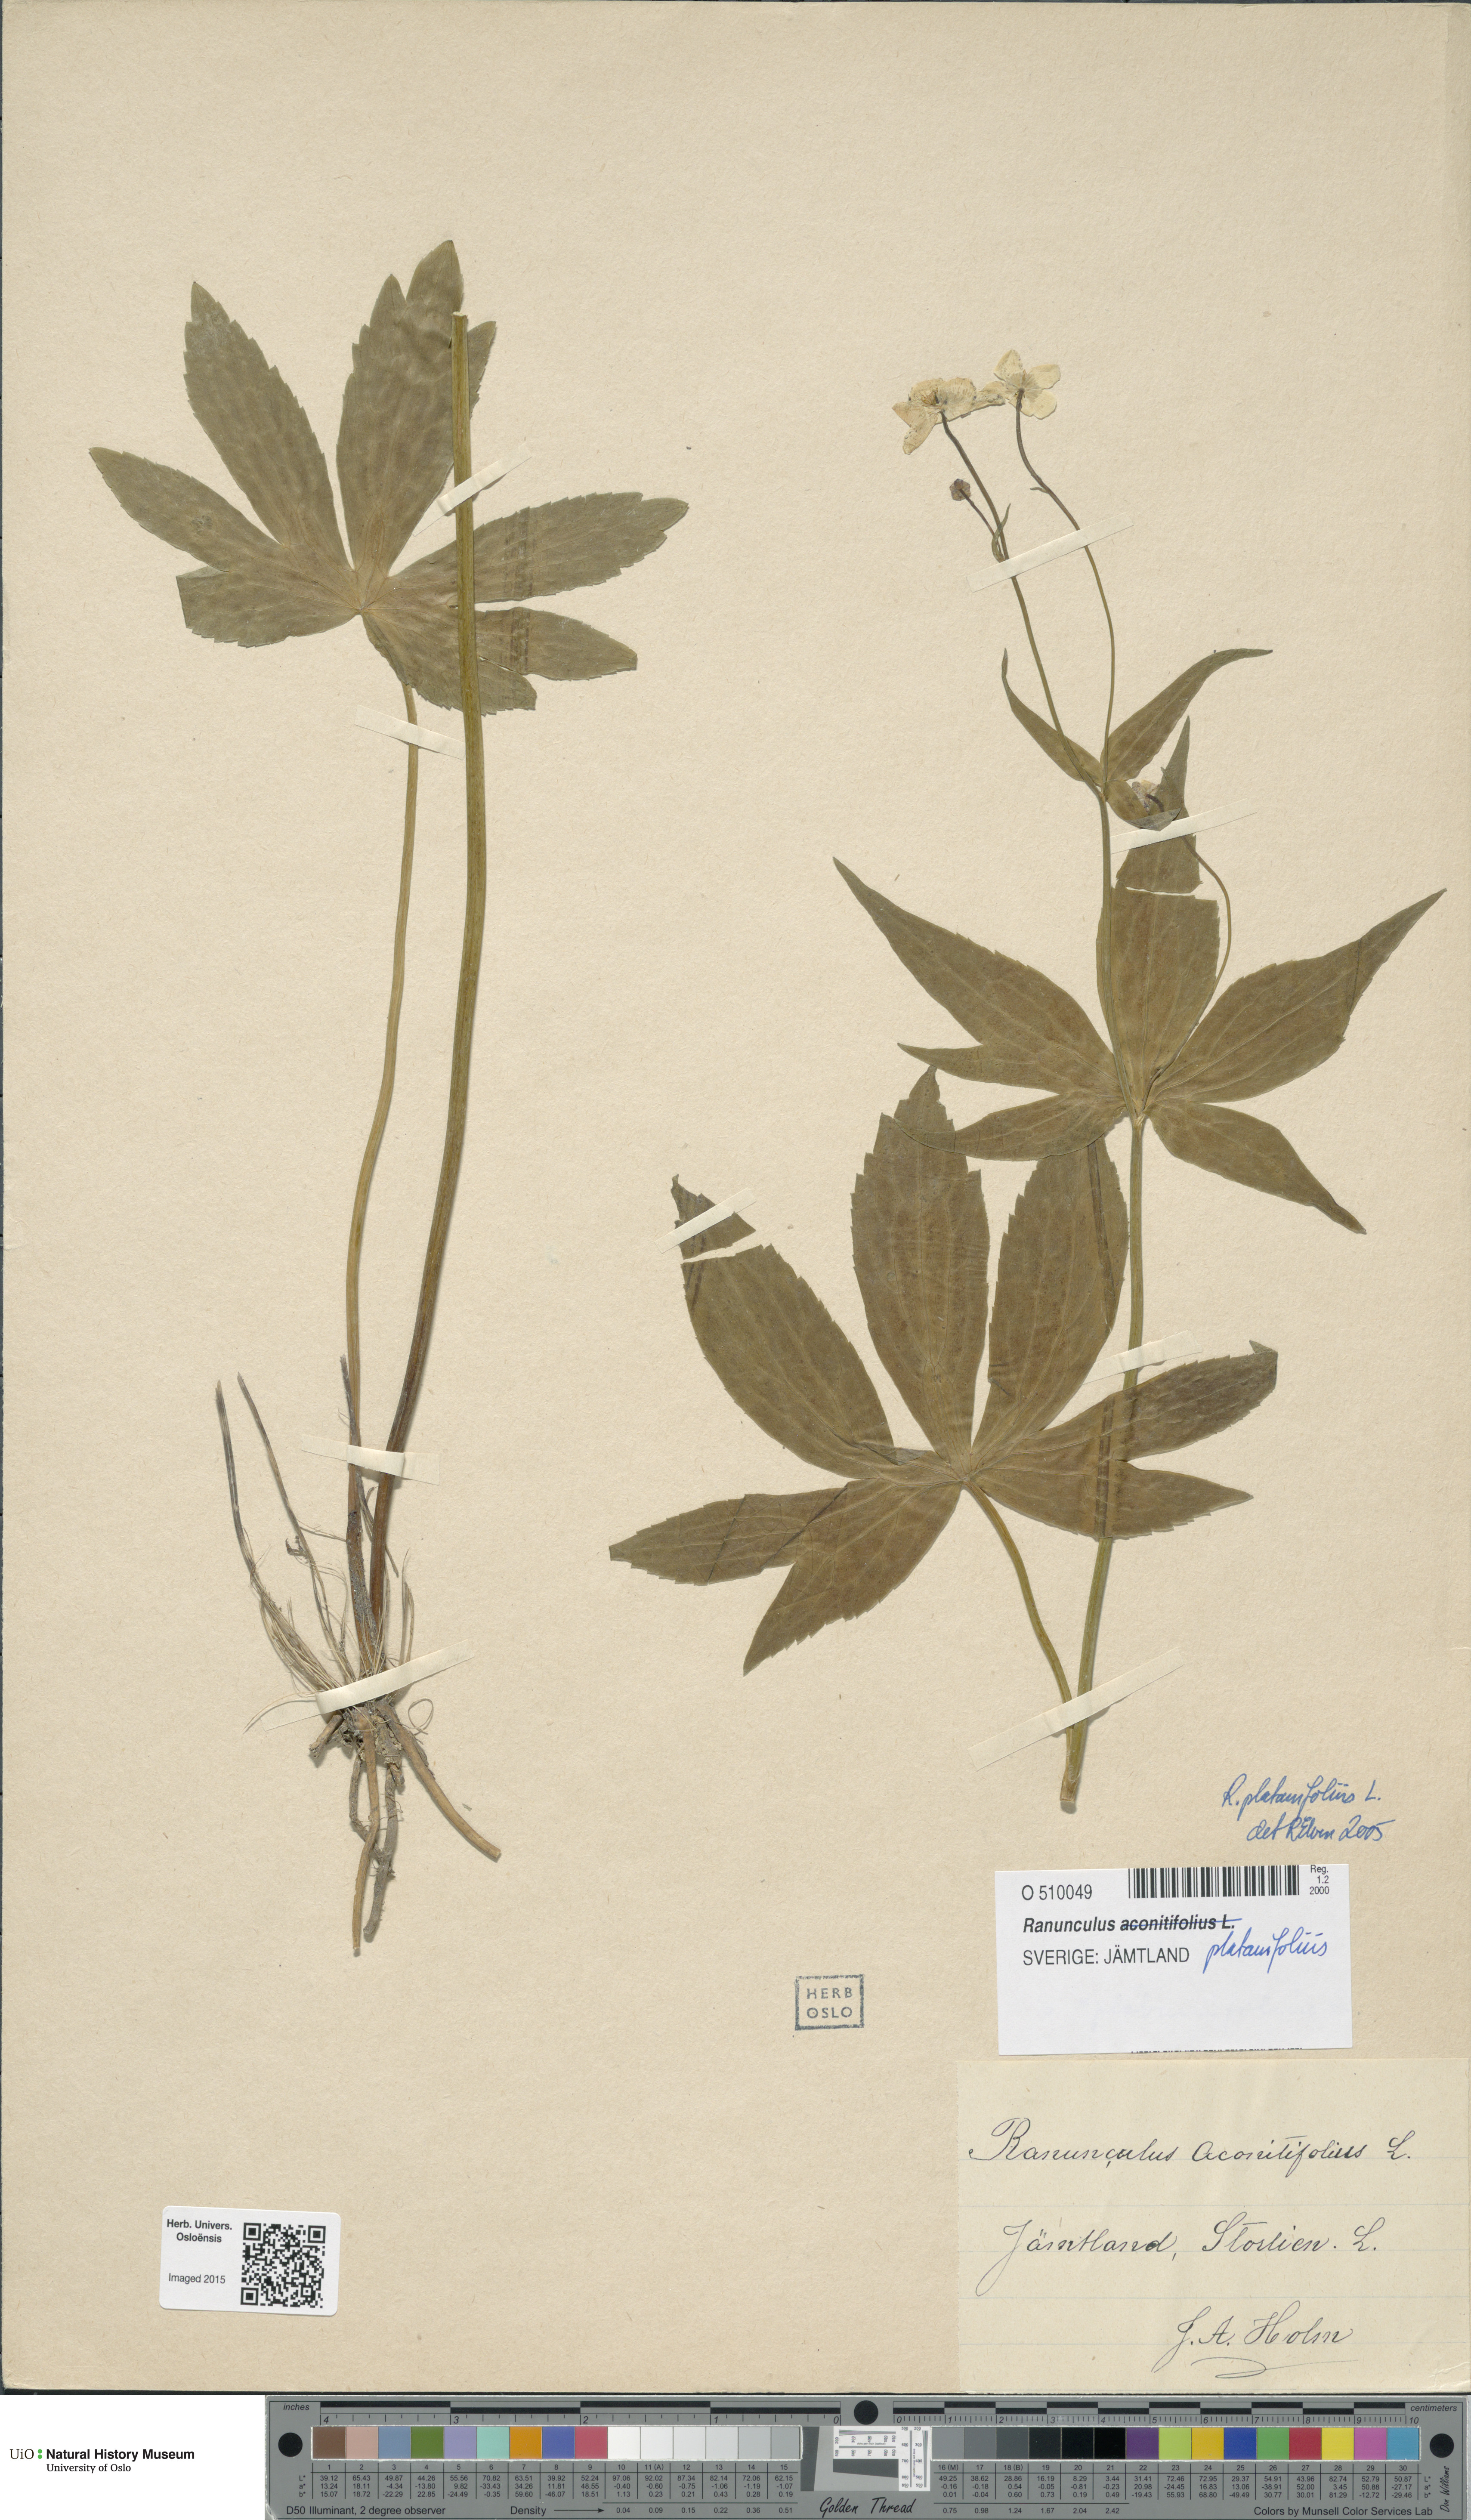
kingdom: Plantae
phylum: Tracheophyta
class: Magnoliopsida
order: Ranunculales
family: Ranunculaceae
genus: Ranunculus
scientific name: Ranunculus platanifolius
